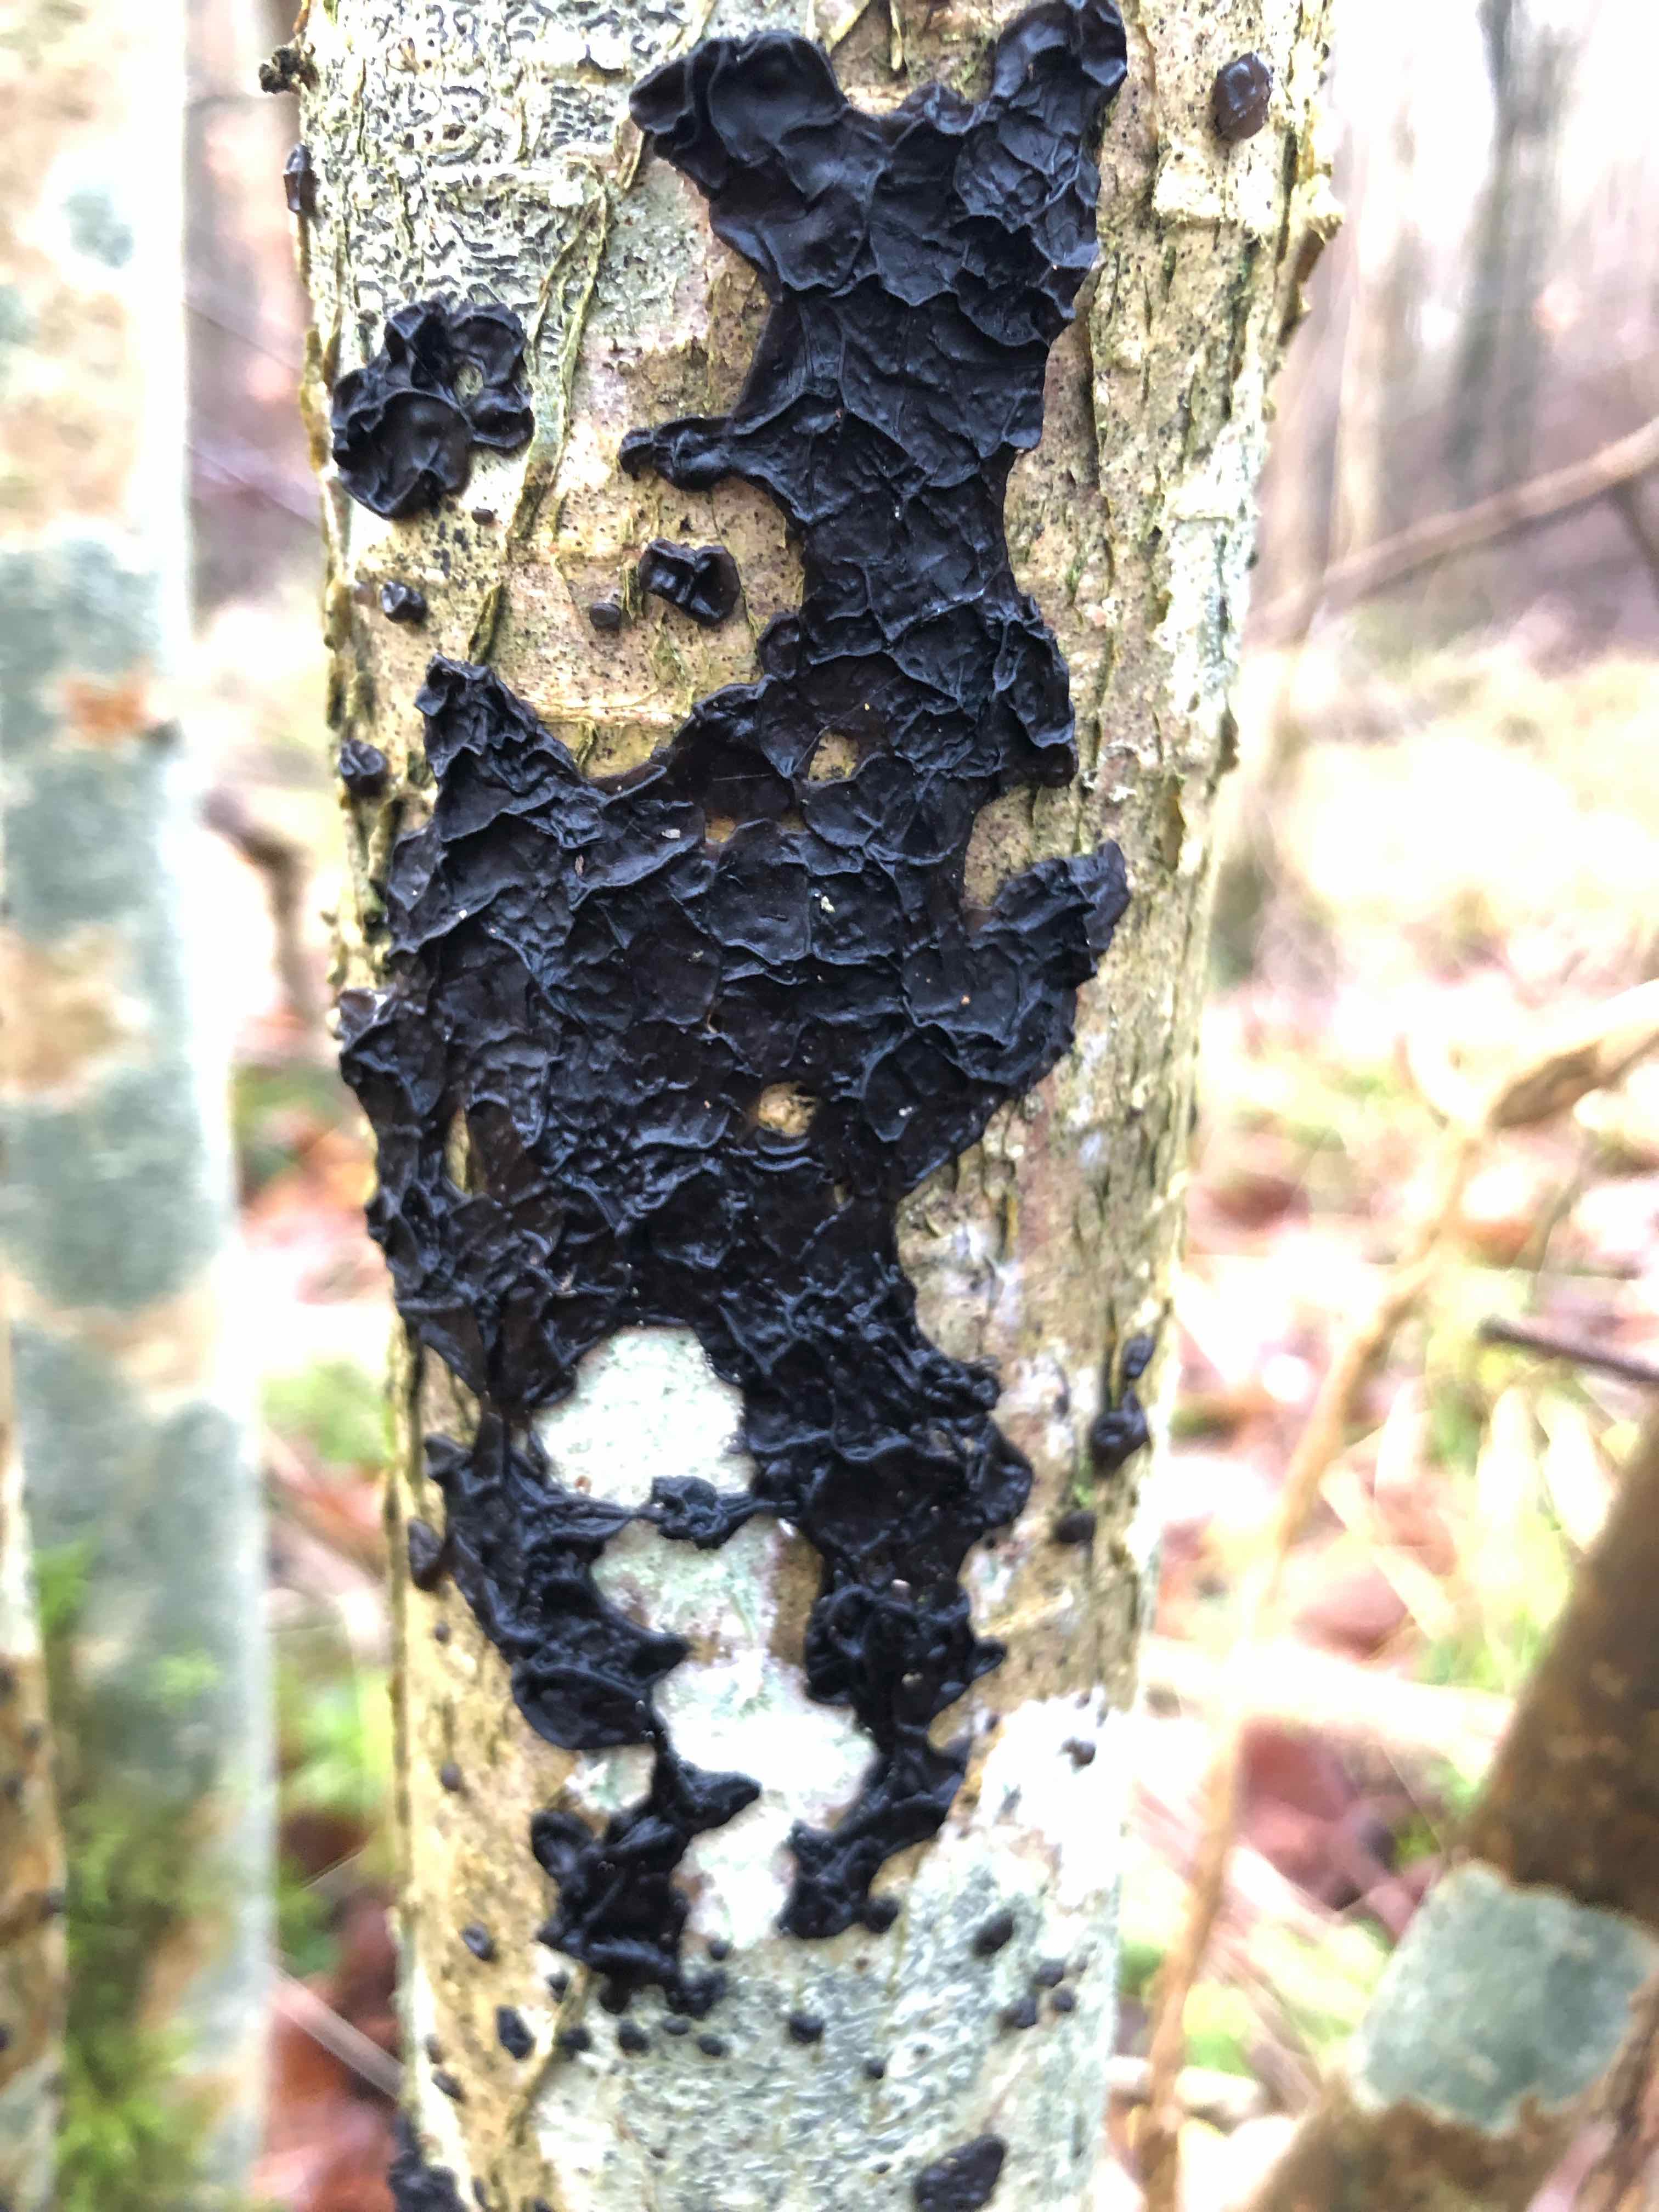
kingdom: Fungi
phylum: Basidiomycota
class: Agaricomycetes
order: Auriculariales
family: Auriculariaceae
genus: Exidia
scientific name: Exidia nigricans
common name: almindelig bævretop
